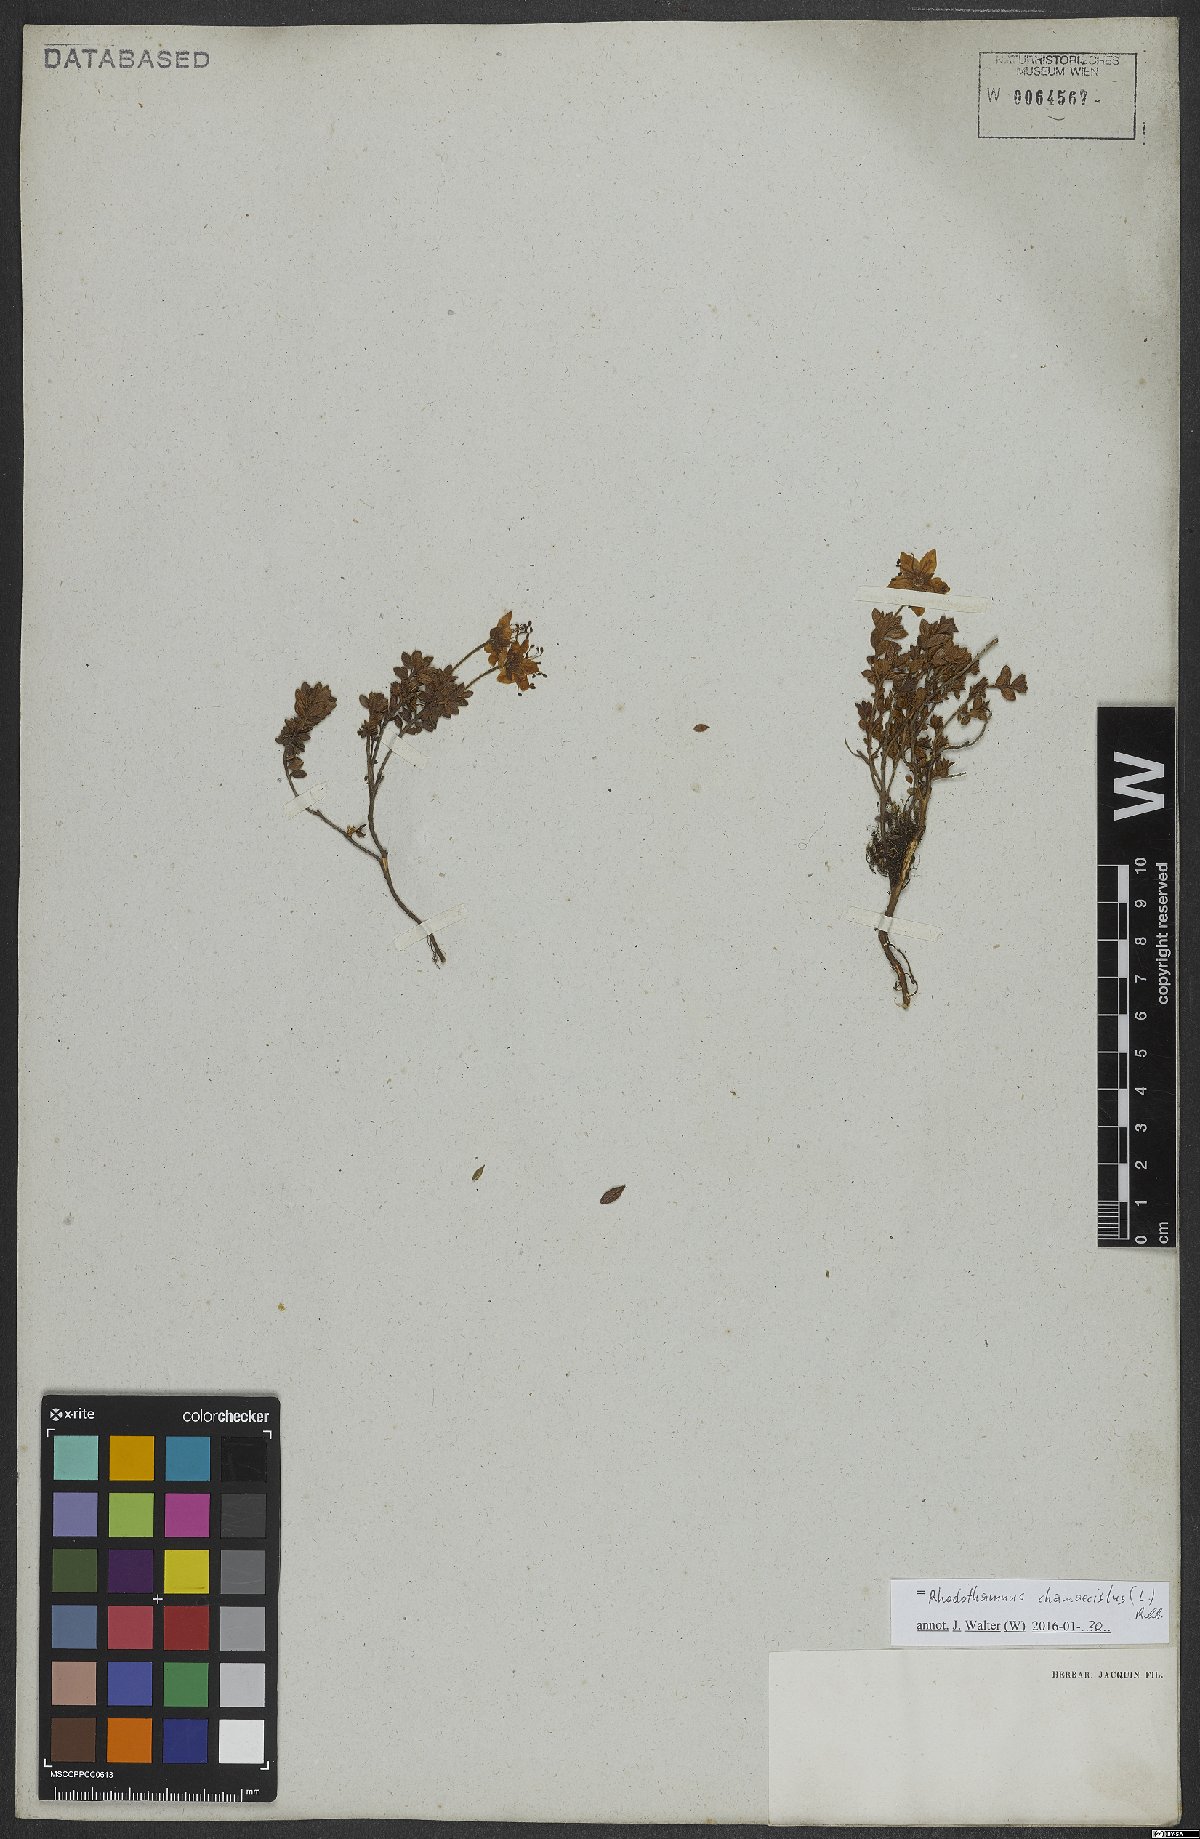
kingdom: Plantae
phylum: Tracheophyta
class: Magnoliopsida
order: Ericales
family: Ericaceae
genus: Rhodothamnus
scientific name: Rhodothamnus chamaecistus
